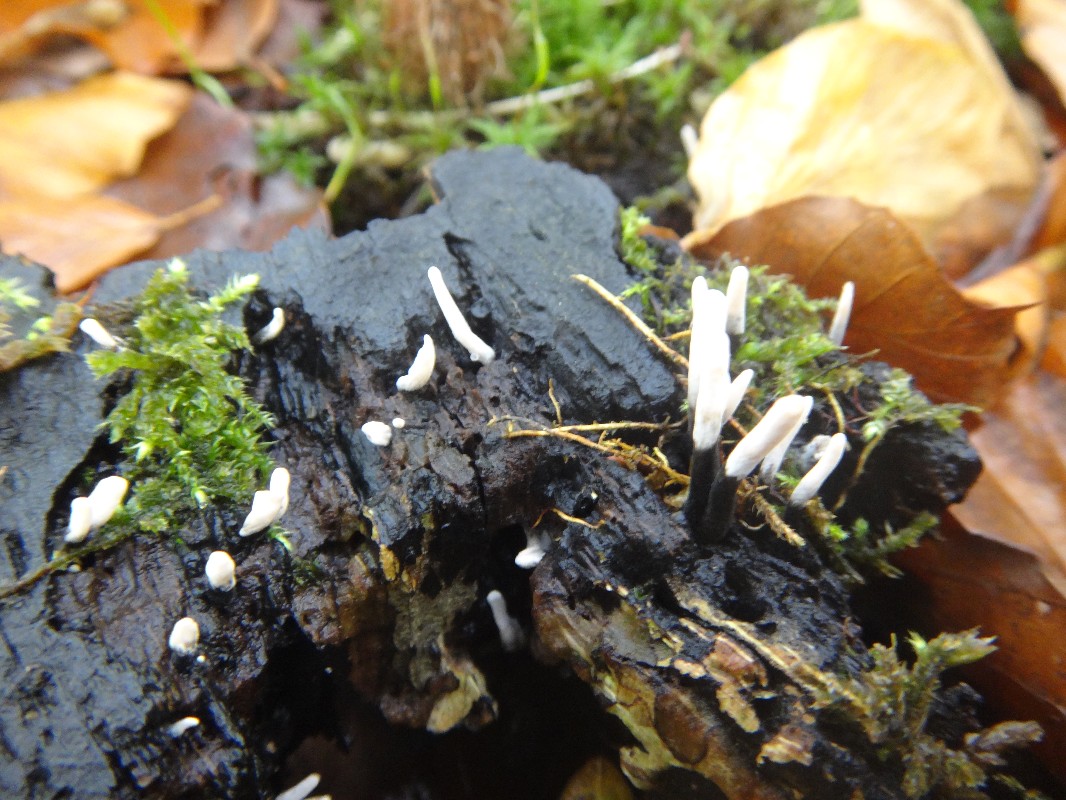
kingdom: Fungi
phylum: Ascomycota
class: Sordariomycetes
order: Xylariales
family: Xylariaceae
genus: Xylaria
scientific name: Xylaria hypoxylon
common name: grenet stødsvamp
